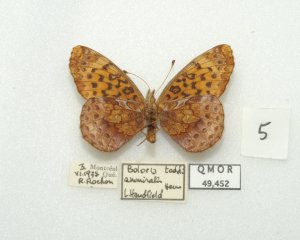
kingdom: Animalia
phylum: Arthropoda
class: Insecta
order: Lepidoptera
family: Nymphalidae
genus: Clossiana
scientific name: Clossiana toddi
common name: Meadow Fritillary
